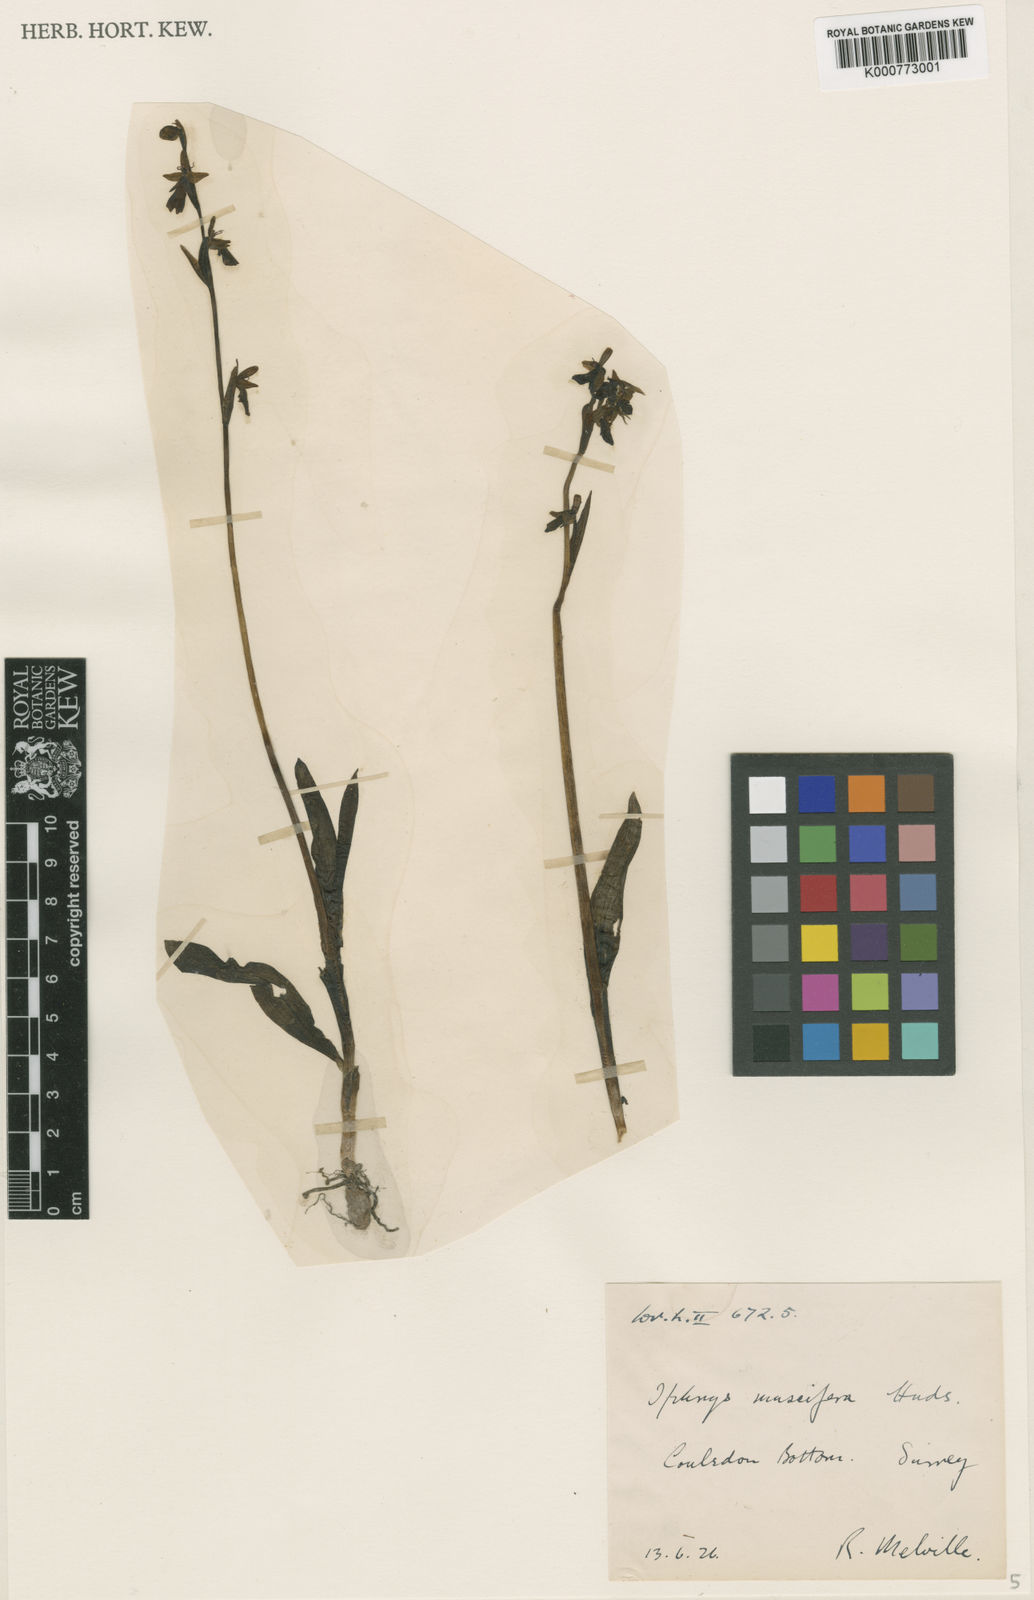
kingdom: Plantae
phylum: Tracheophyta
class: Liliopsida
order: Asparagales
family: Orchidaceae
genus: Ophrys
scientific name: Ophrys insectifera
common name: Fly orchid
